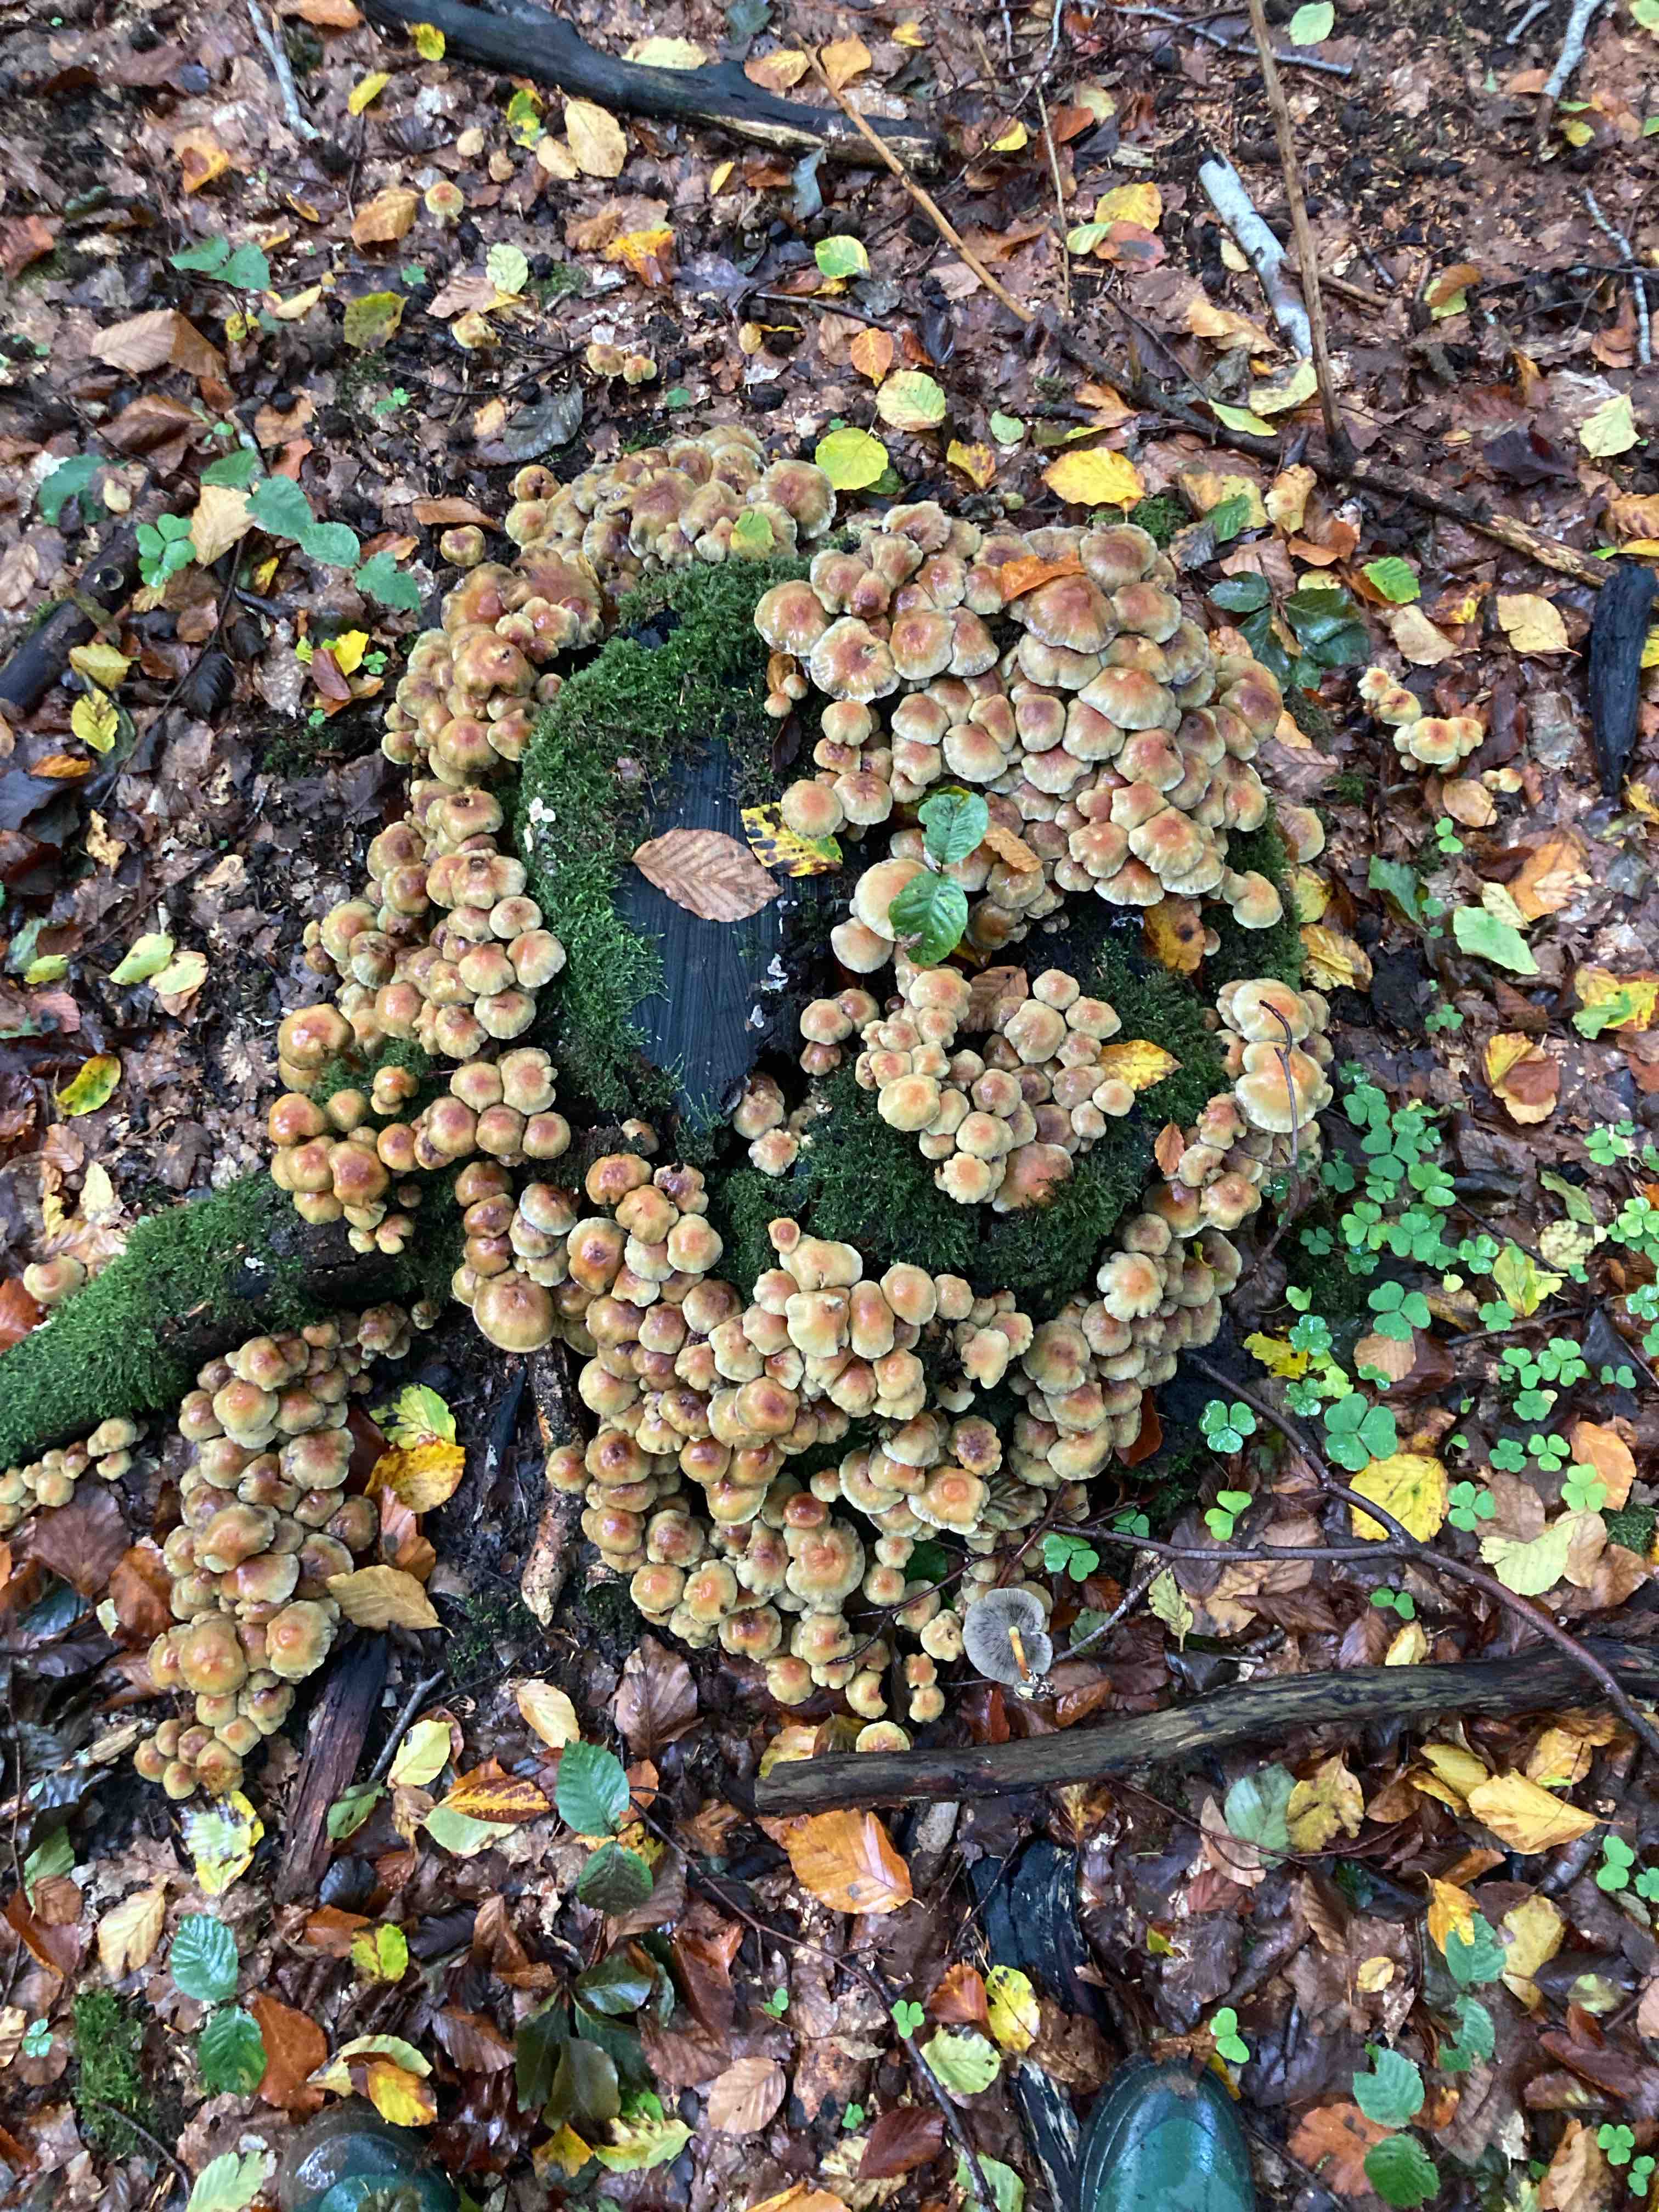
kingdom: Fungi
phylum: Basidiomycota
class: Agaricomycetes
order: Agaricales
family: Strophariaceae
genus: Hypholoma
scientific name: Hypholoma fasciculare
